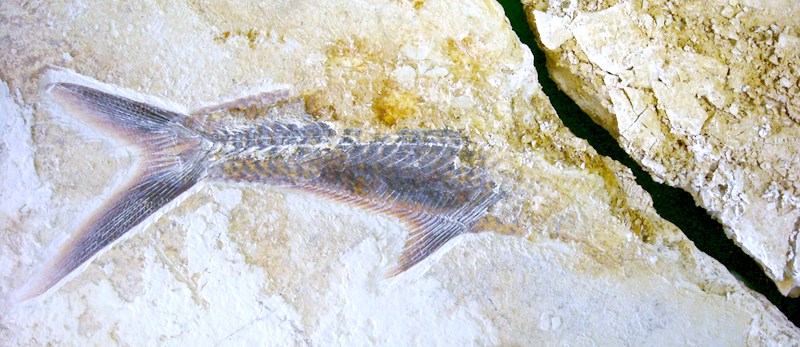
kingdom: Animalia
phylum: Chordata
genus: Thrissops
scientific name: Thrissops formosus
